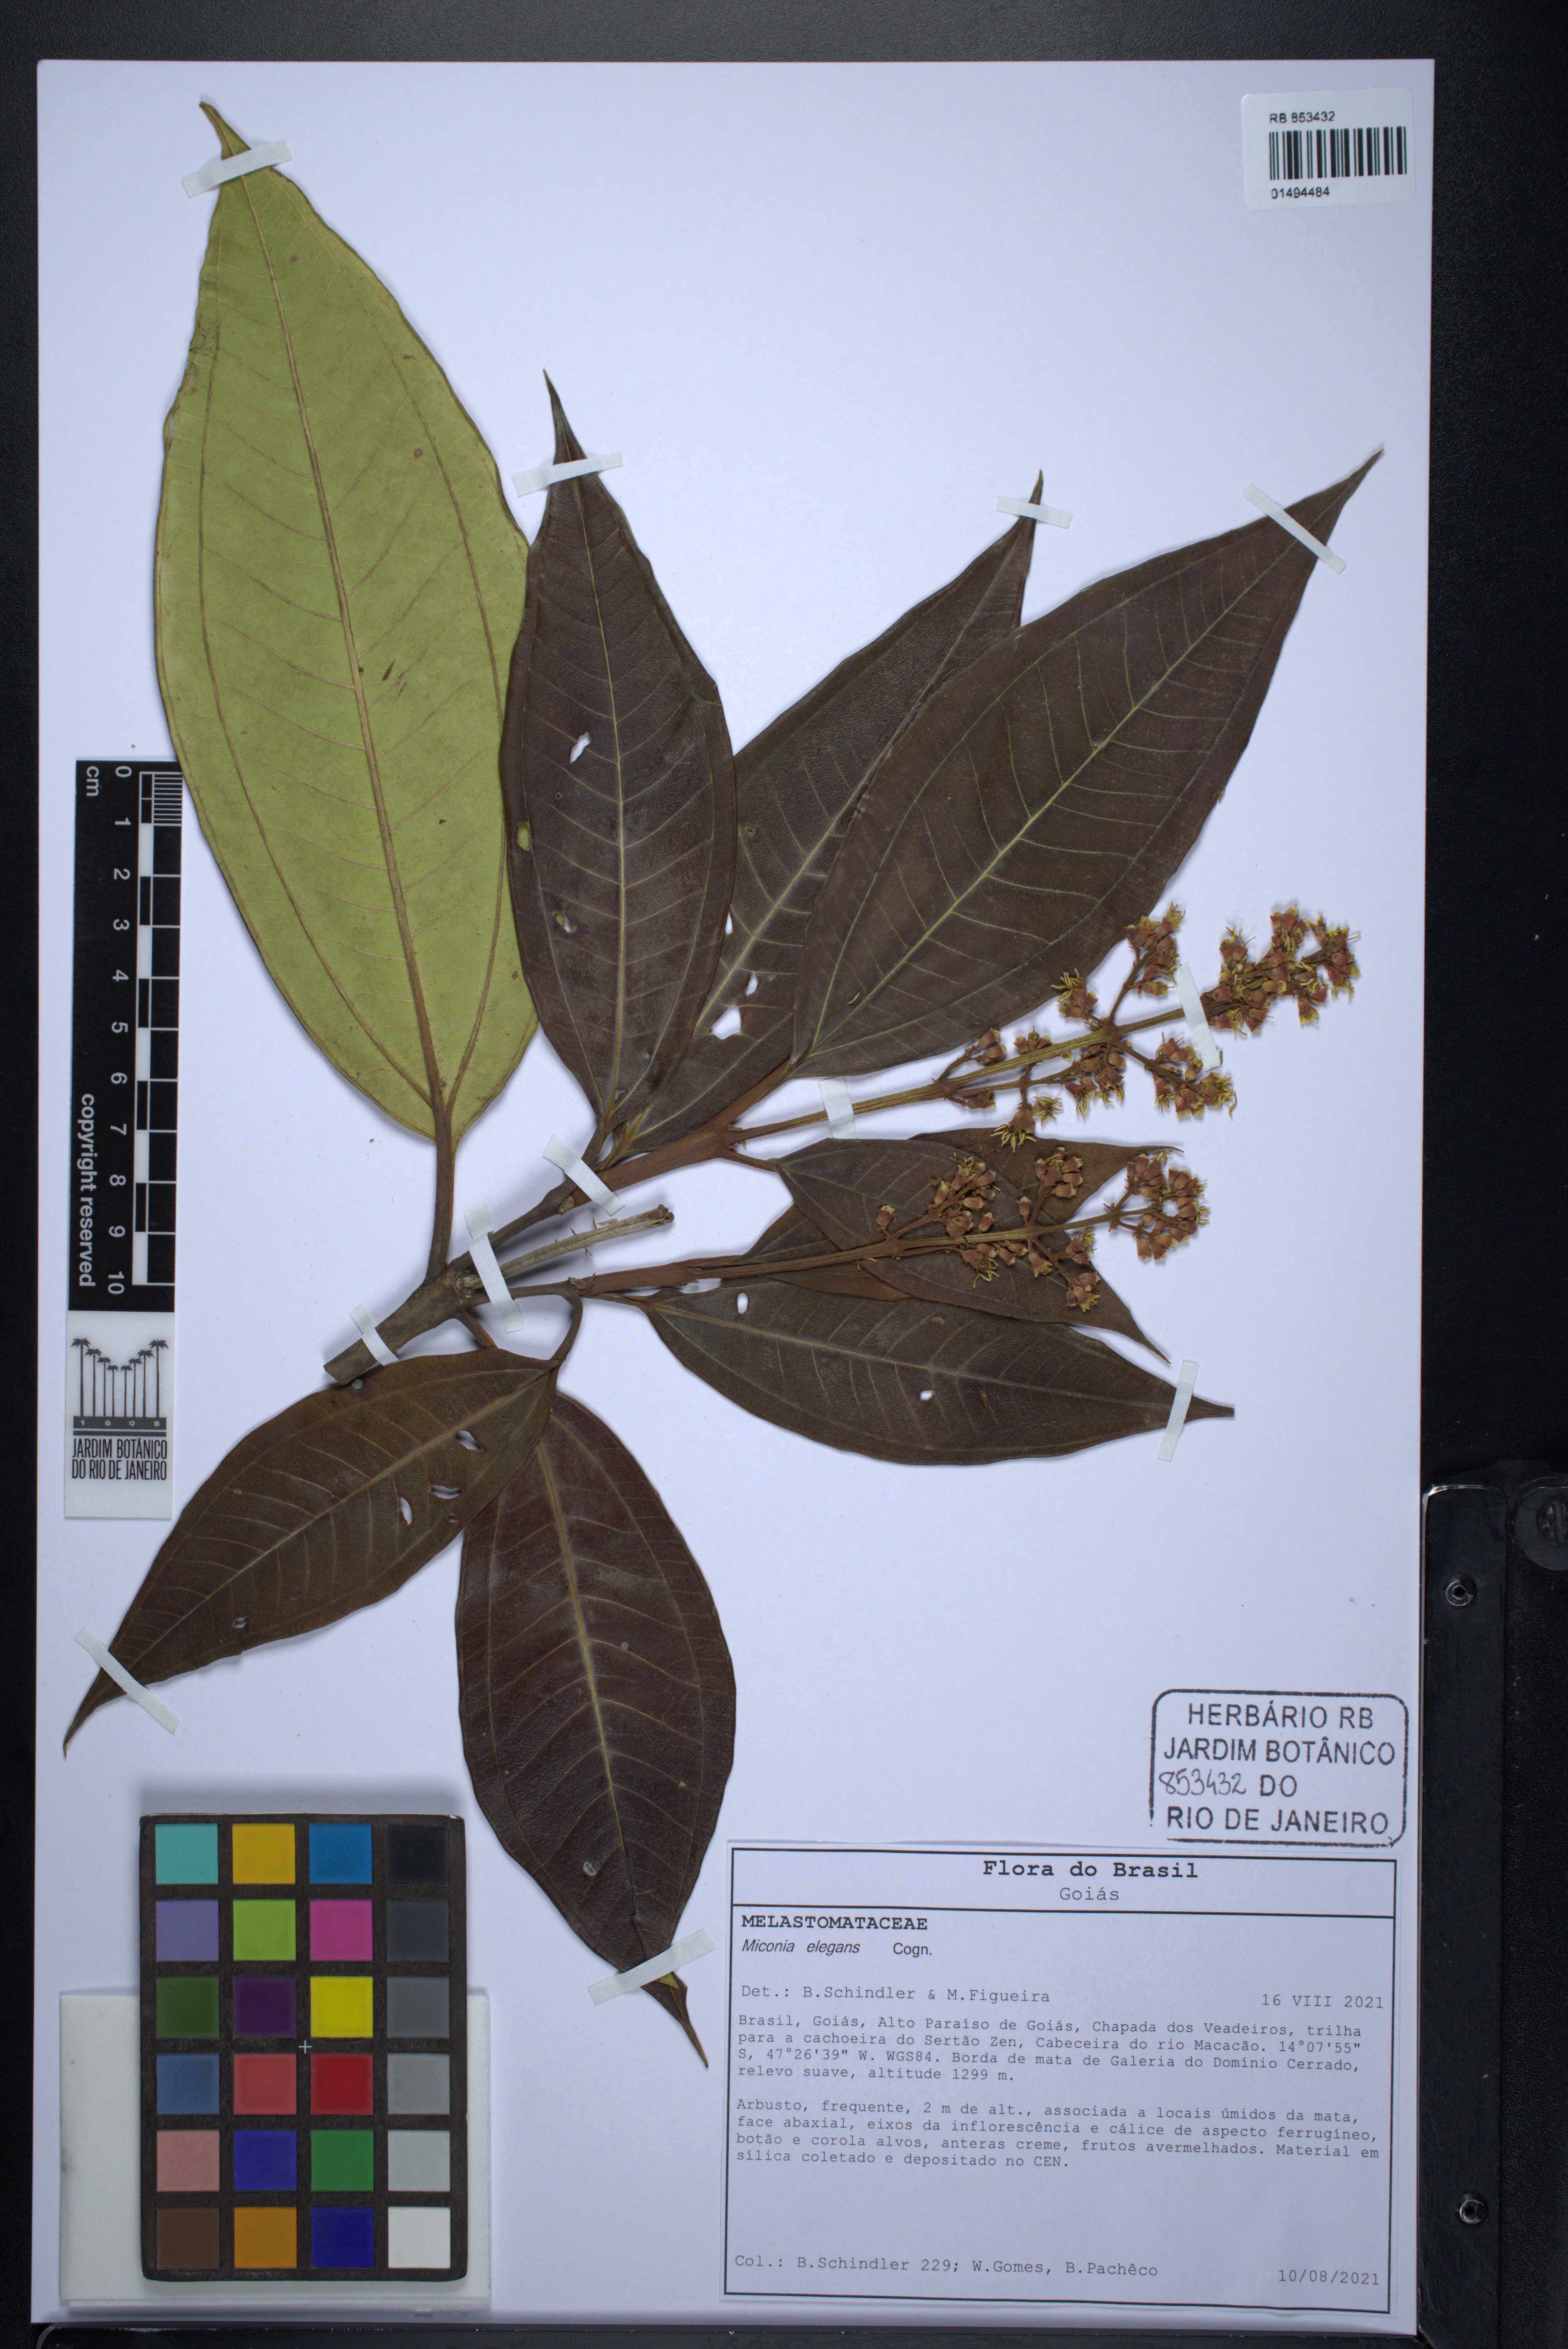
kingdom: Plantae
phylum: Tracheophyta
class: Magnoliopsida
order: Myrtales
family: Melastomataceae
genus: Miconia
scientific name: Miconia elegans
